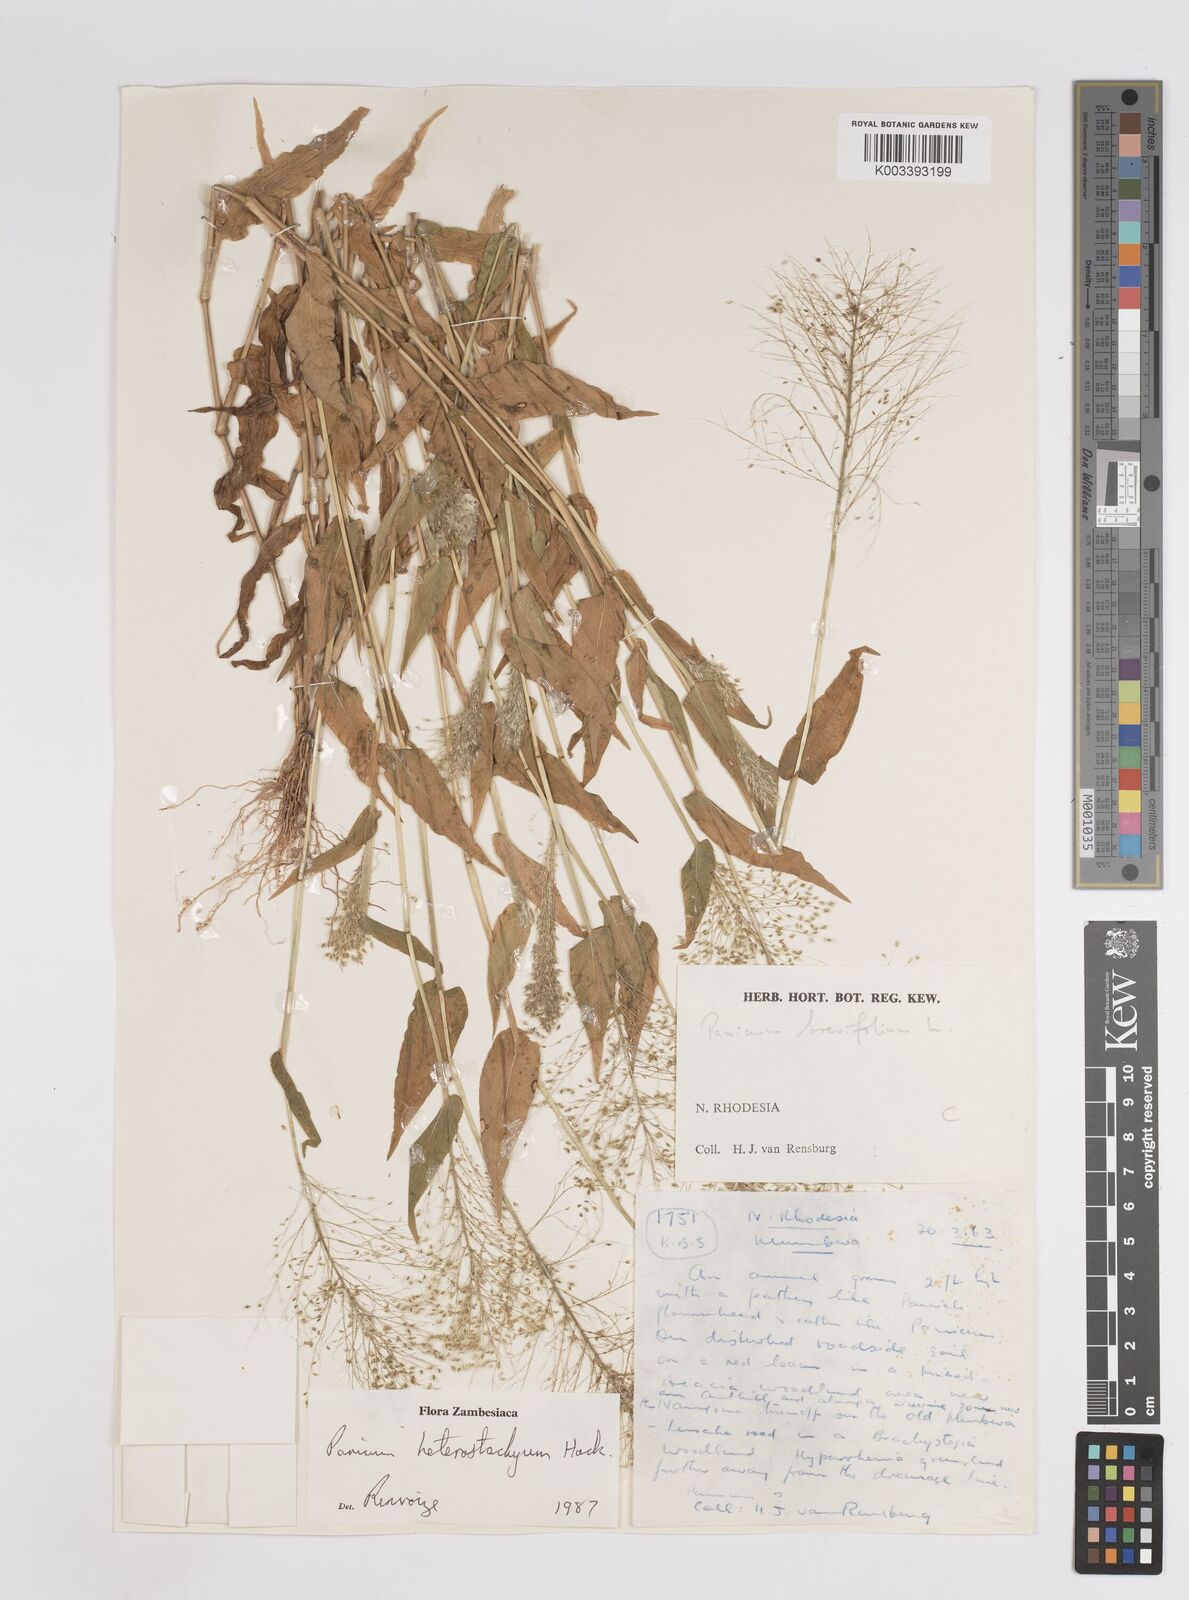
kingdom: Plantae
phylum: Tracheophyta
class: Liliopsida
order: Poales
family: Poaceae
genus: Panicum
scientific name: Panicum hirtum
